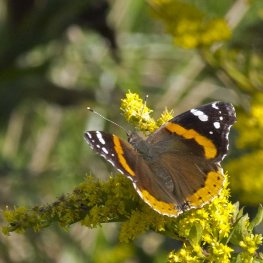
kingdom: Animalia
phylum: Arthropoda
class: Insecta
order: Lepidoptera
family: Nymphalidae
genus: Vanessa
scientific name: Vanessa atalanta
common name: Red Admiral
